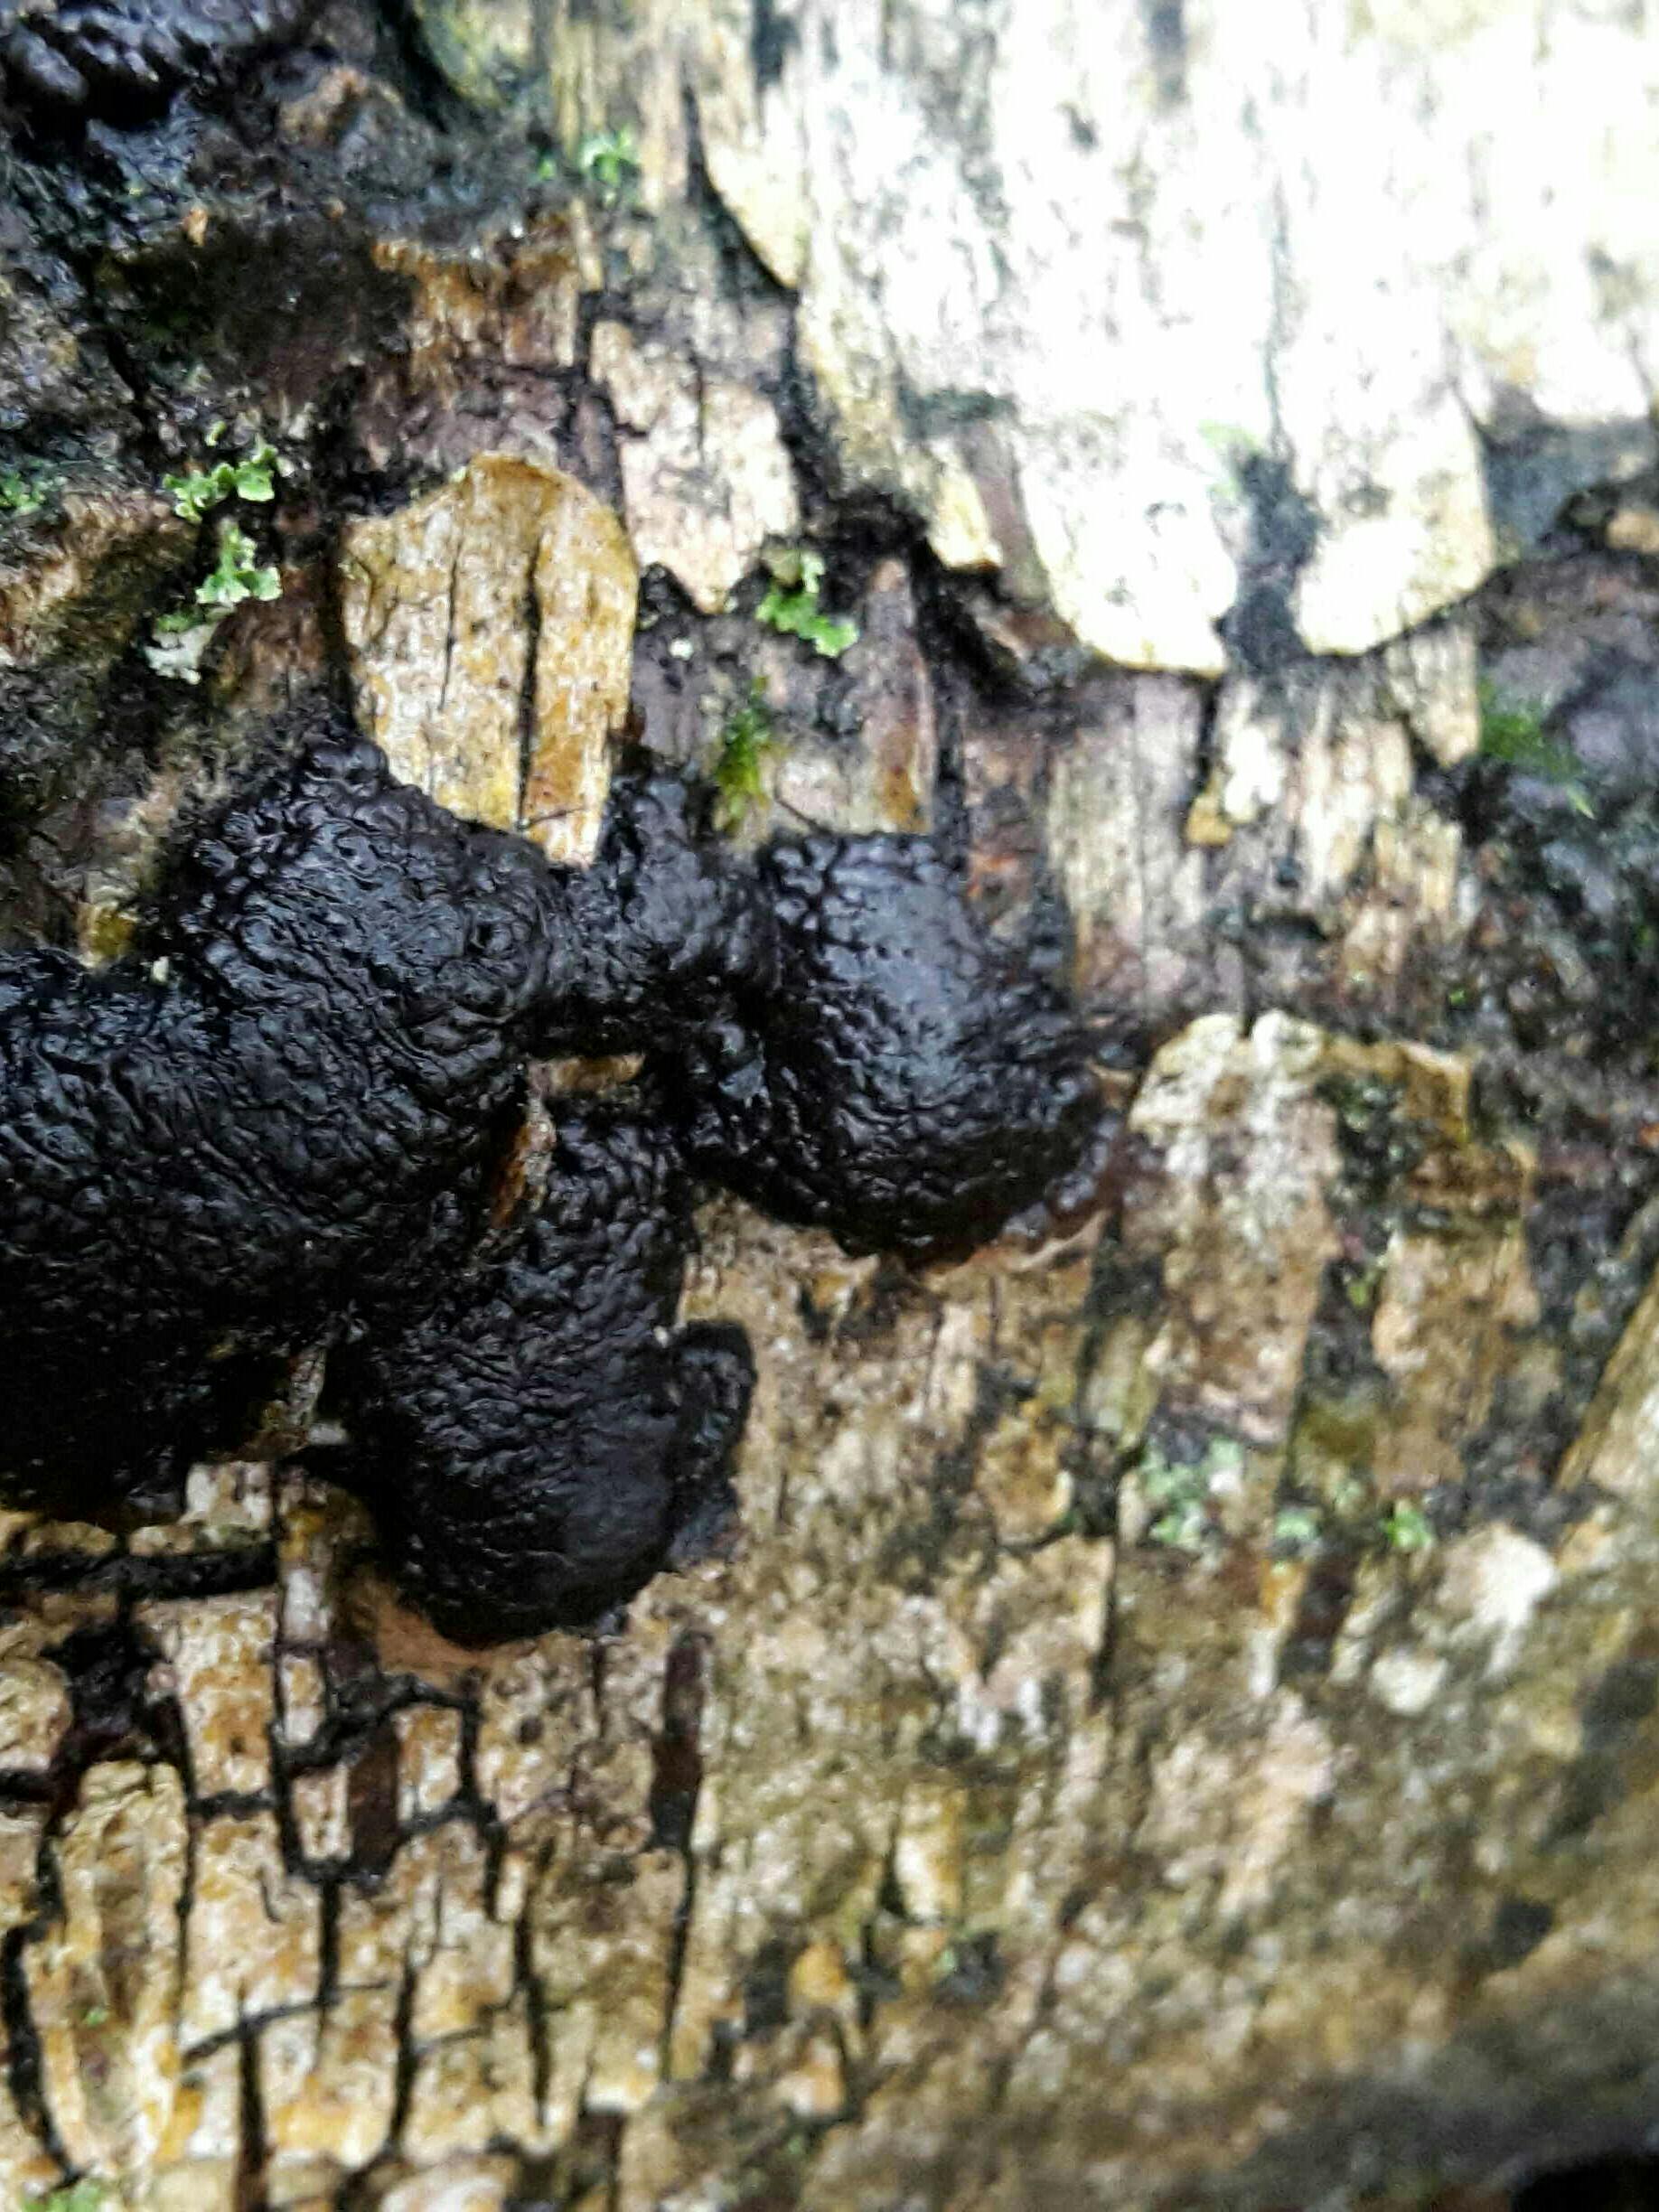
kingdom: Fungi
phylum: Ascomycota
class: Sordariomycetes
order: Xylariales
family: Hypoxylaceae
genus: Jackrogersella
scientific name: Jackrogersella multiformis
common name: foranderlig kulbær
